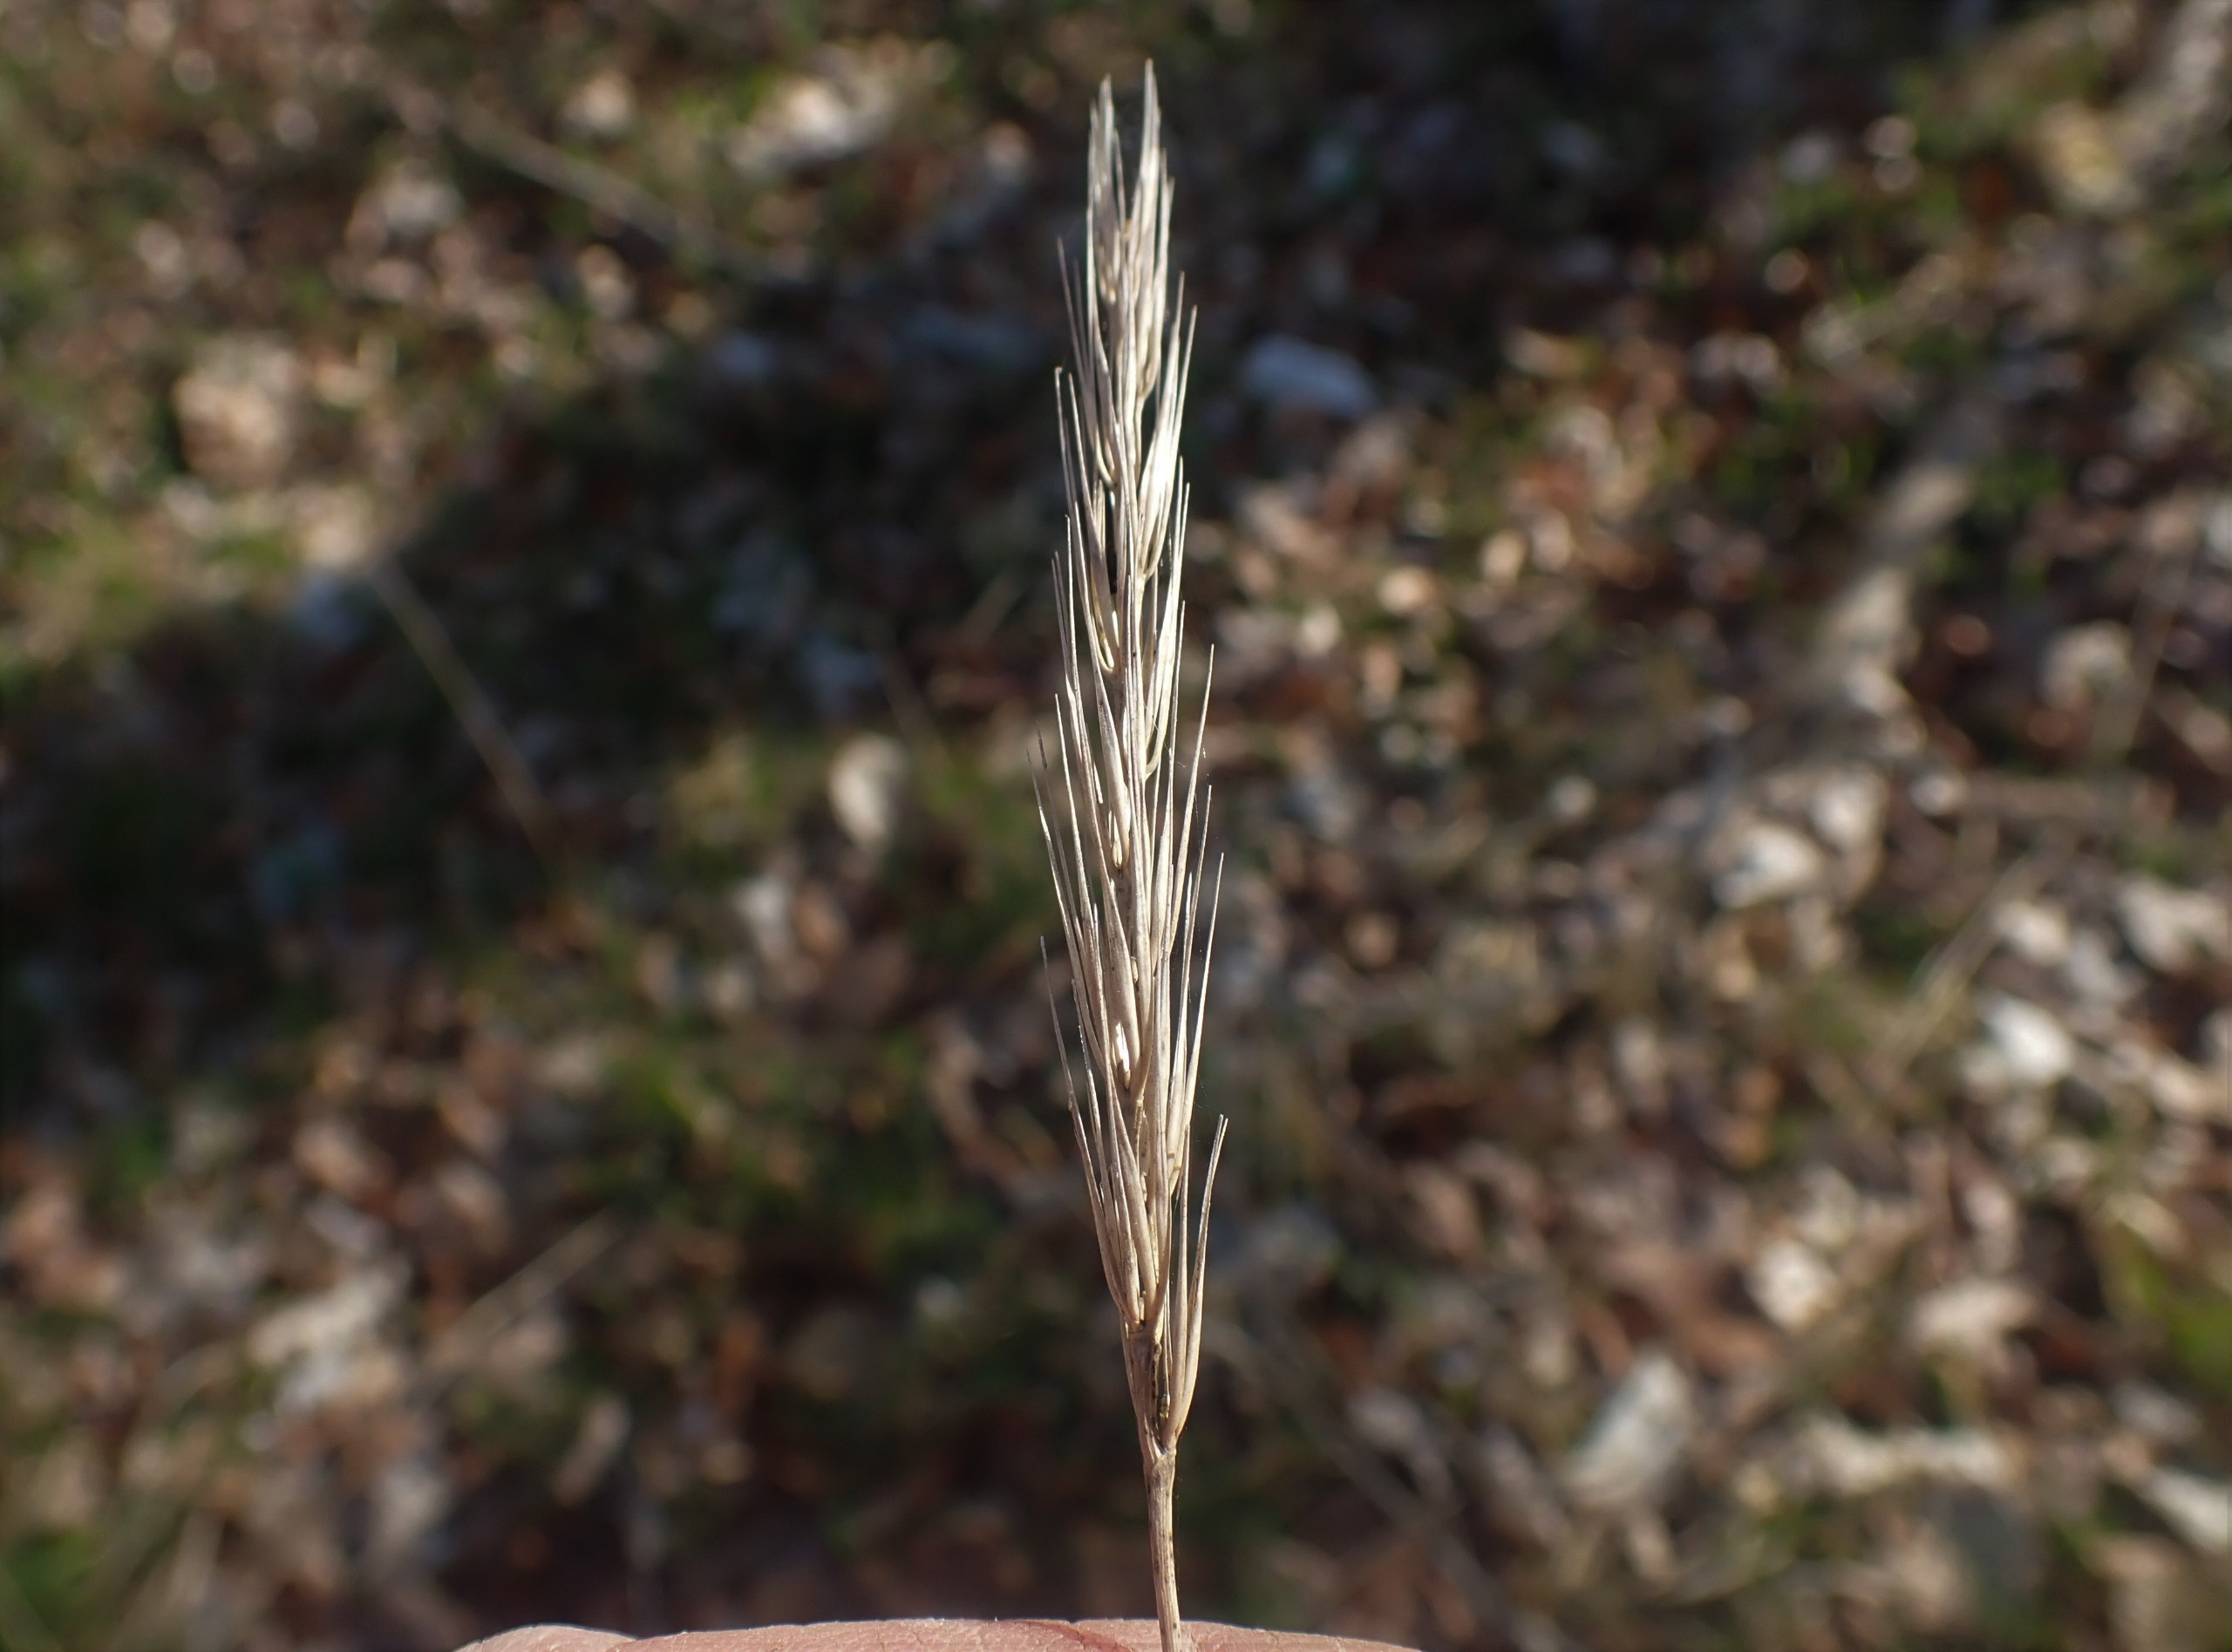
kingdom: Plantae
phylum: Tracheophyta
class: Liliopsida
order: Poales
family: Poaceae
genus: Hordelymus
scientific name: Hordelymus europaeus
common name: Skovbyg
